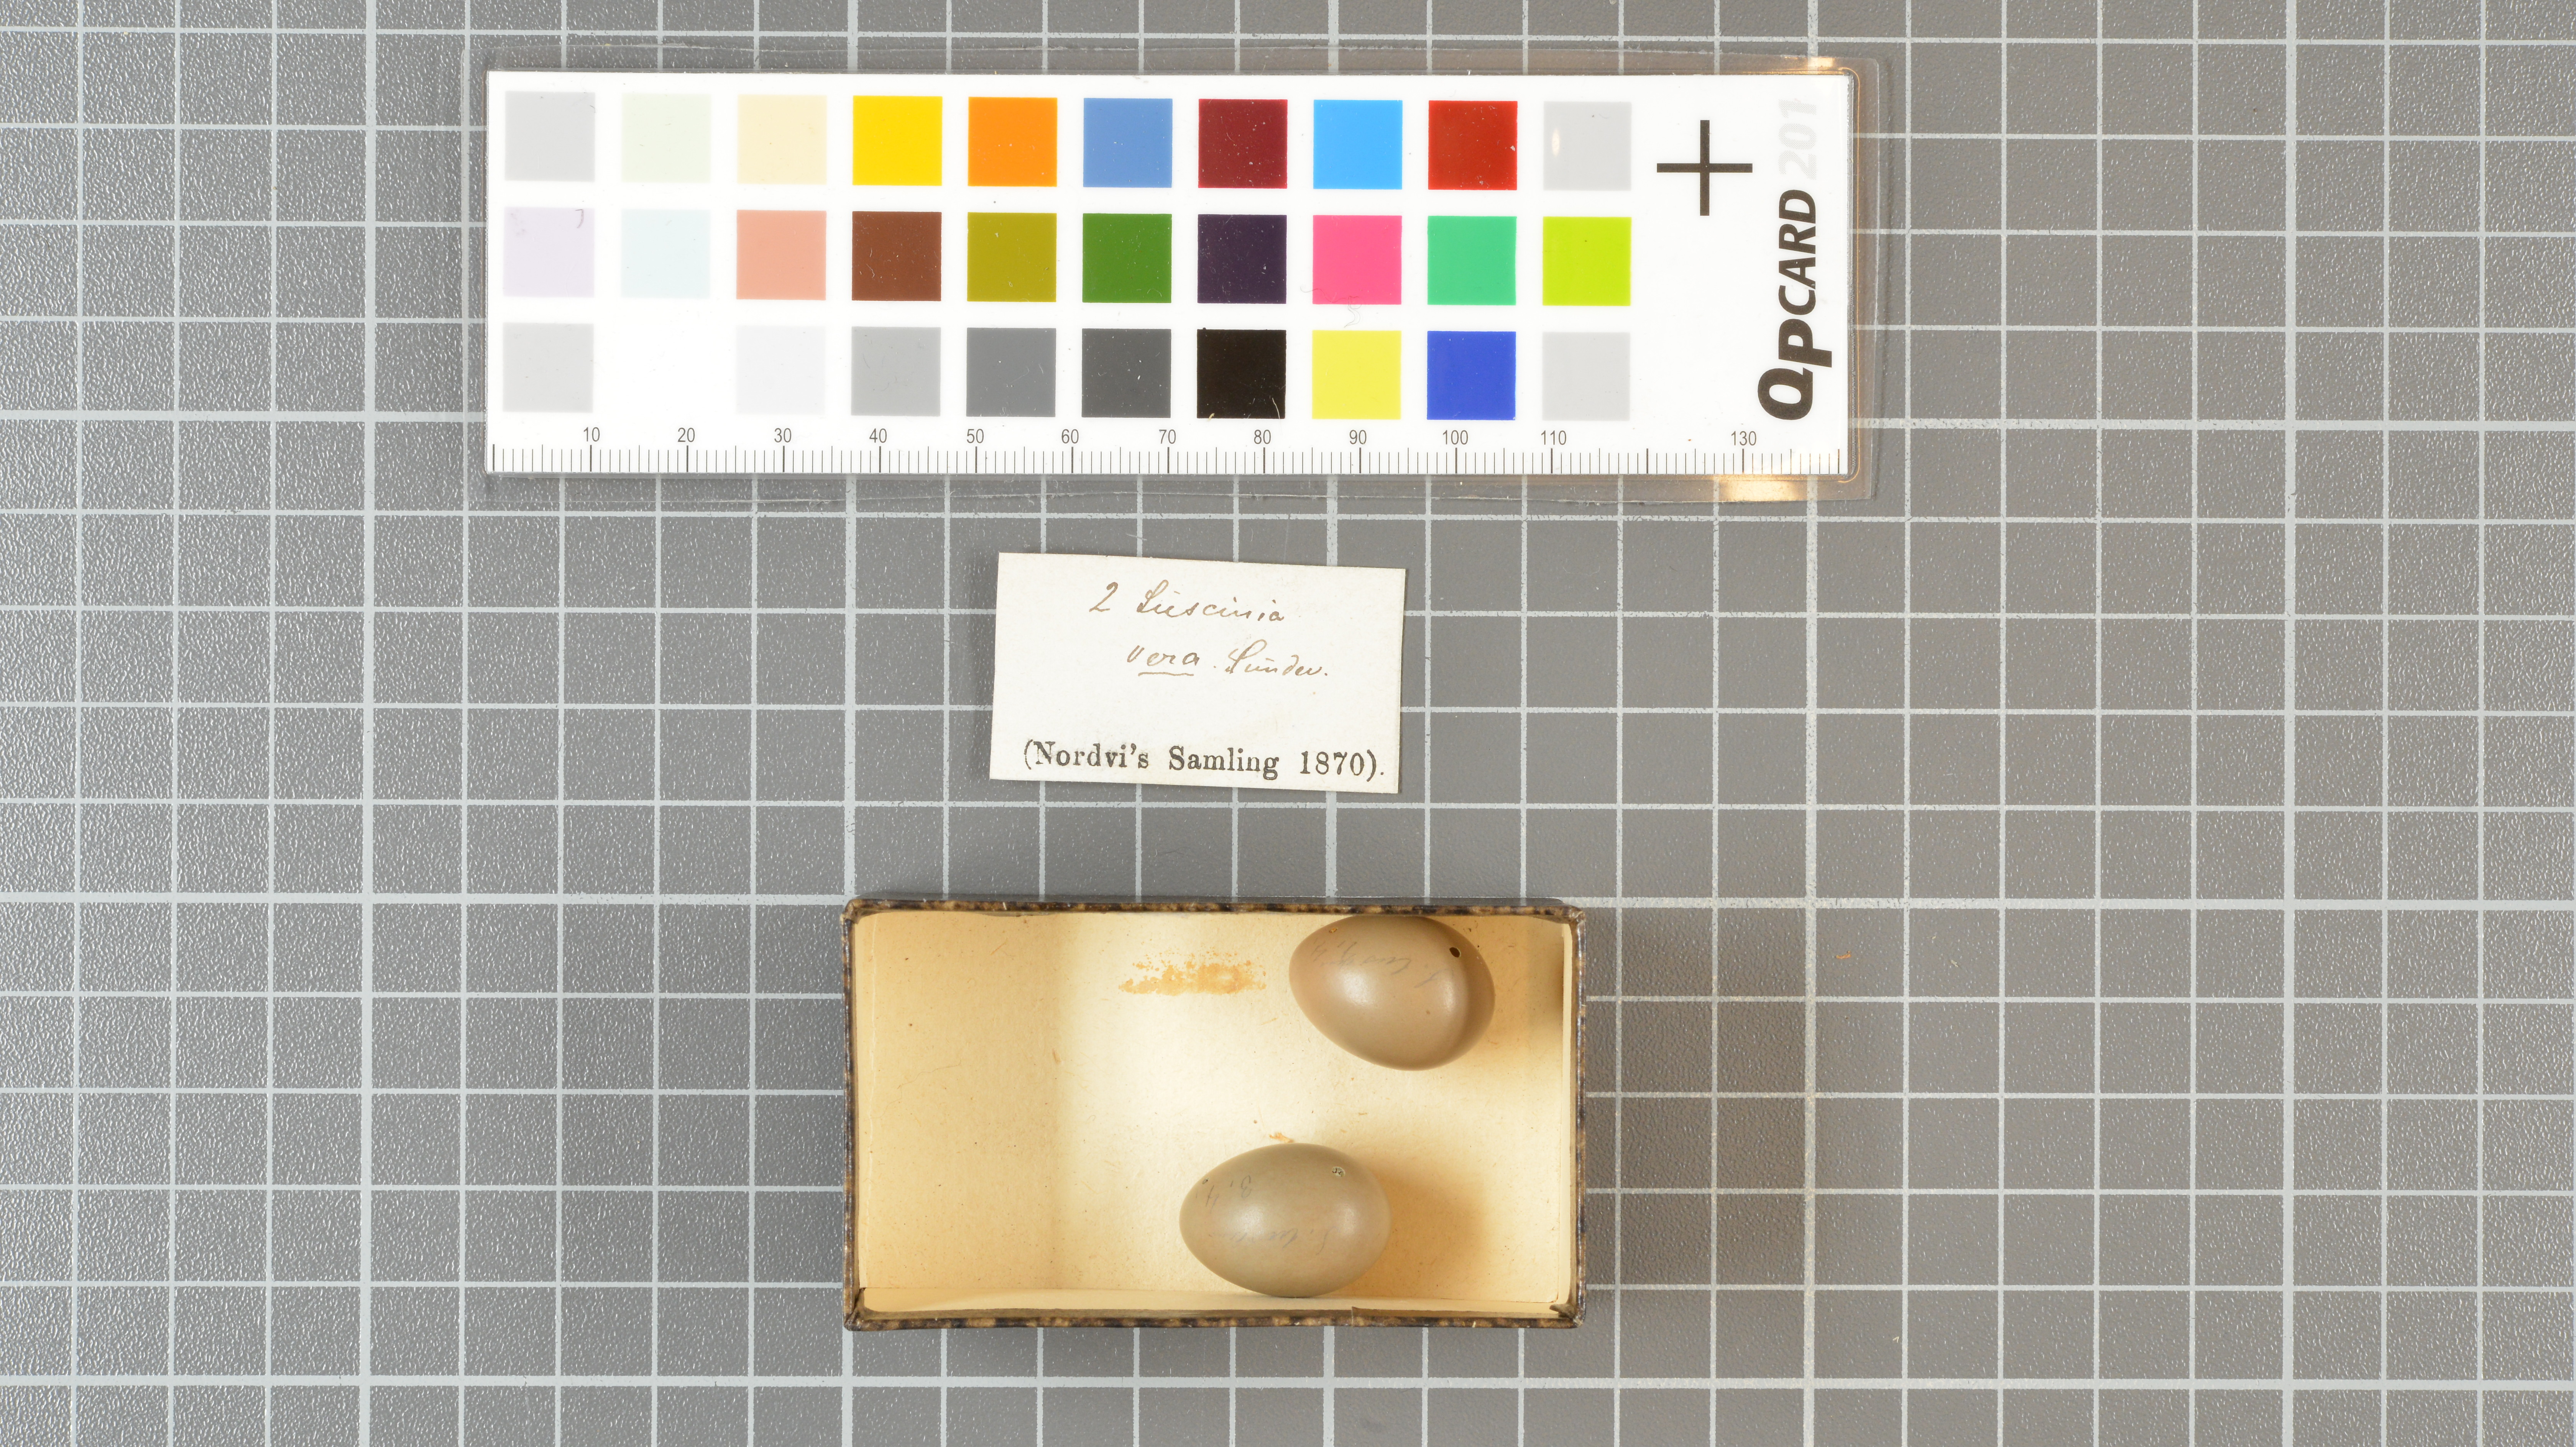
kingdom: Animalia
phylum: Chordata
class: Aves
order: Passeriformes
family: Muscicapidae
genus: Luscinia
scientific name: Luscinia
